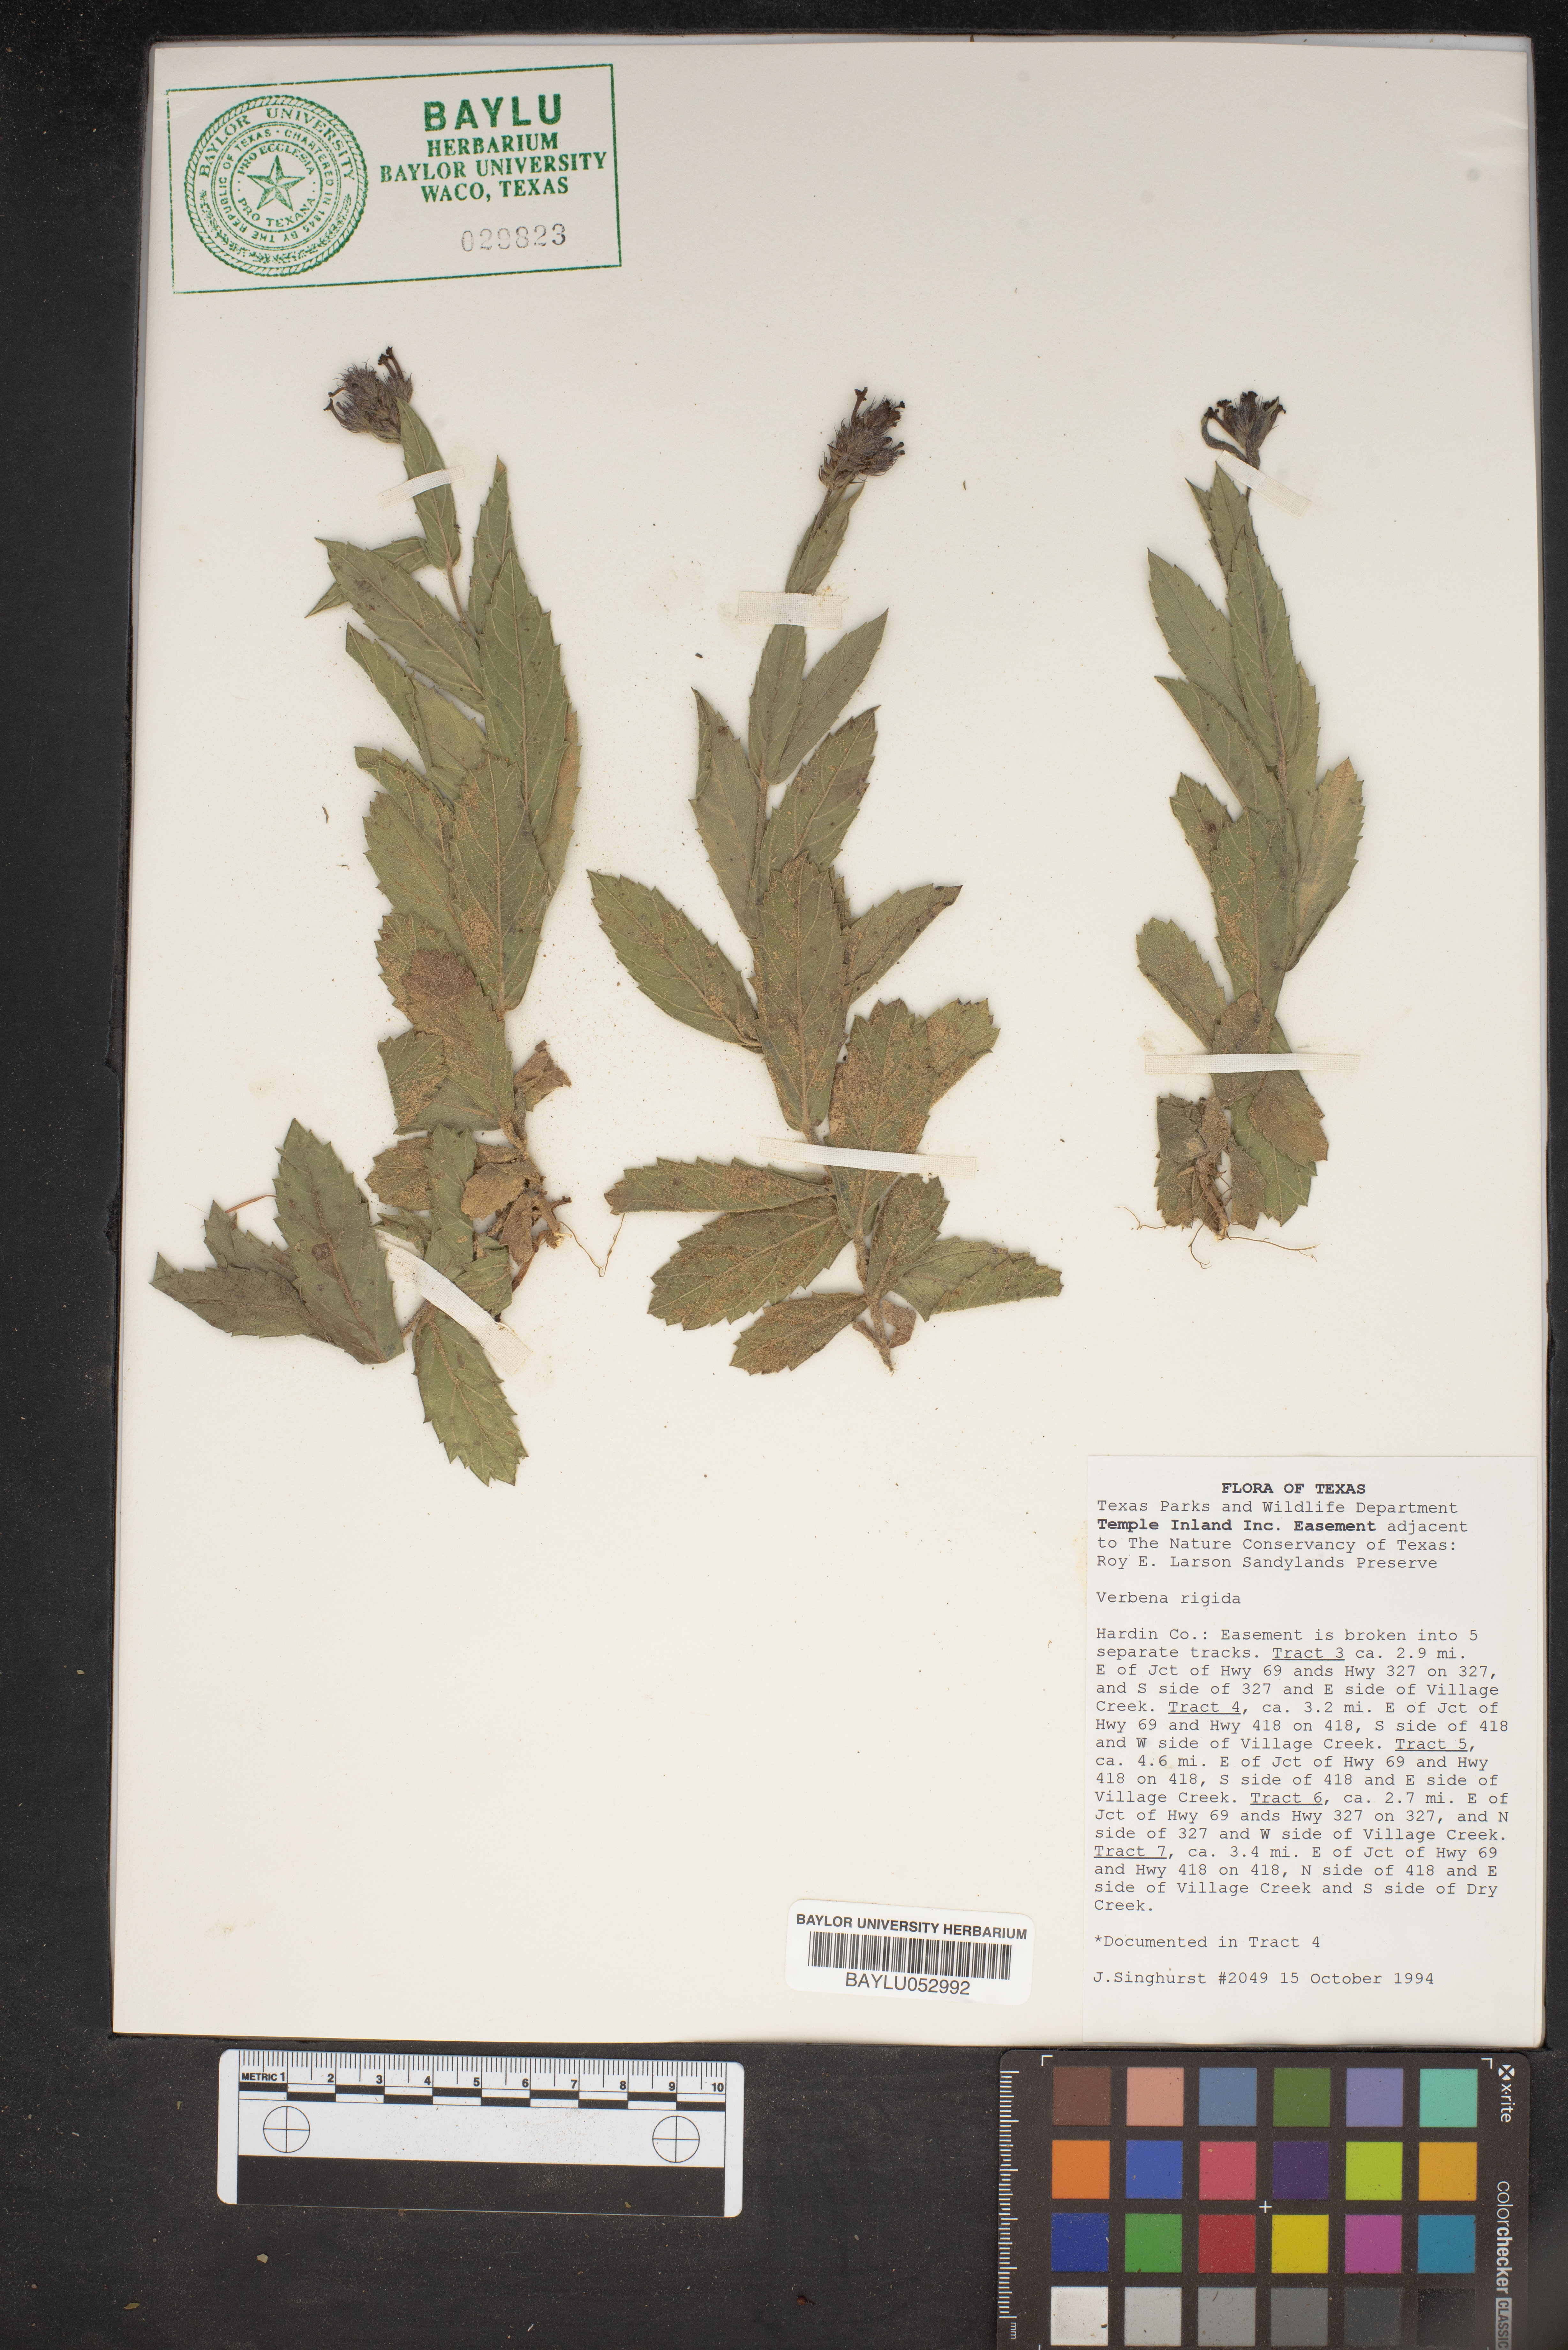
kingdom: Plantae
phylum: Tracheophyta
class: Magnoliopsida
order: Lamiales
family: Verbenaceae
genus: Verbena
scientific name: Verbena rigida
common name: Slender vervain
